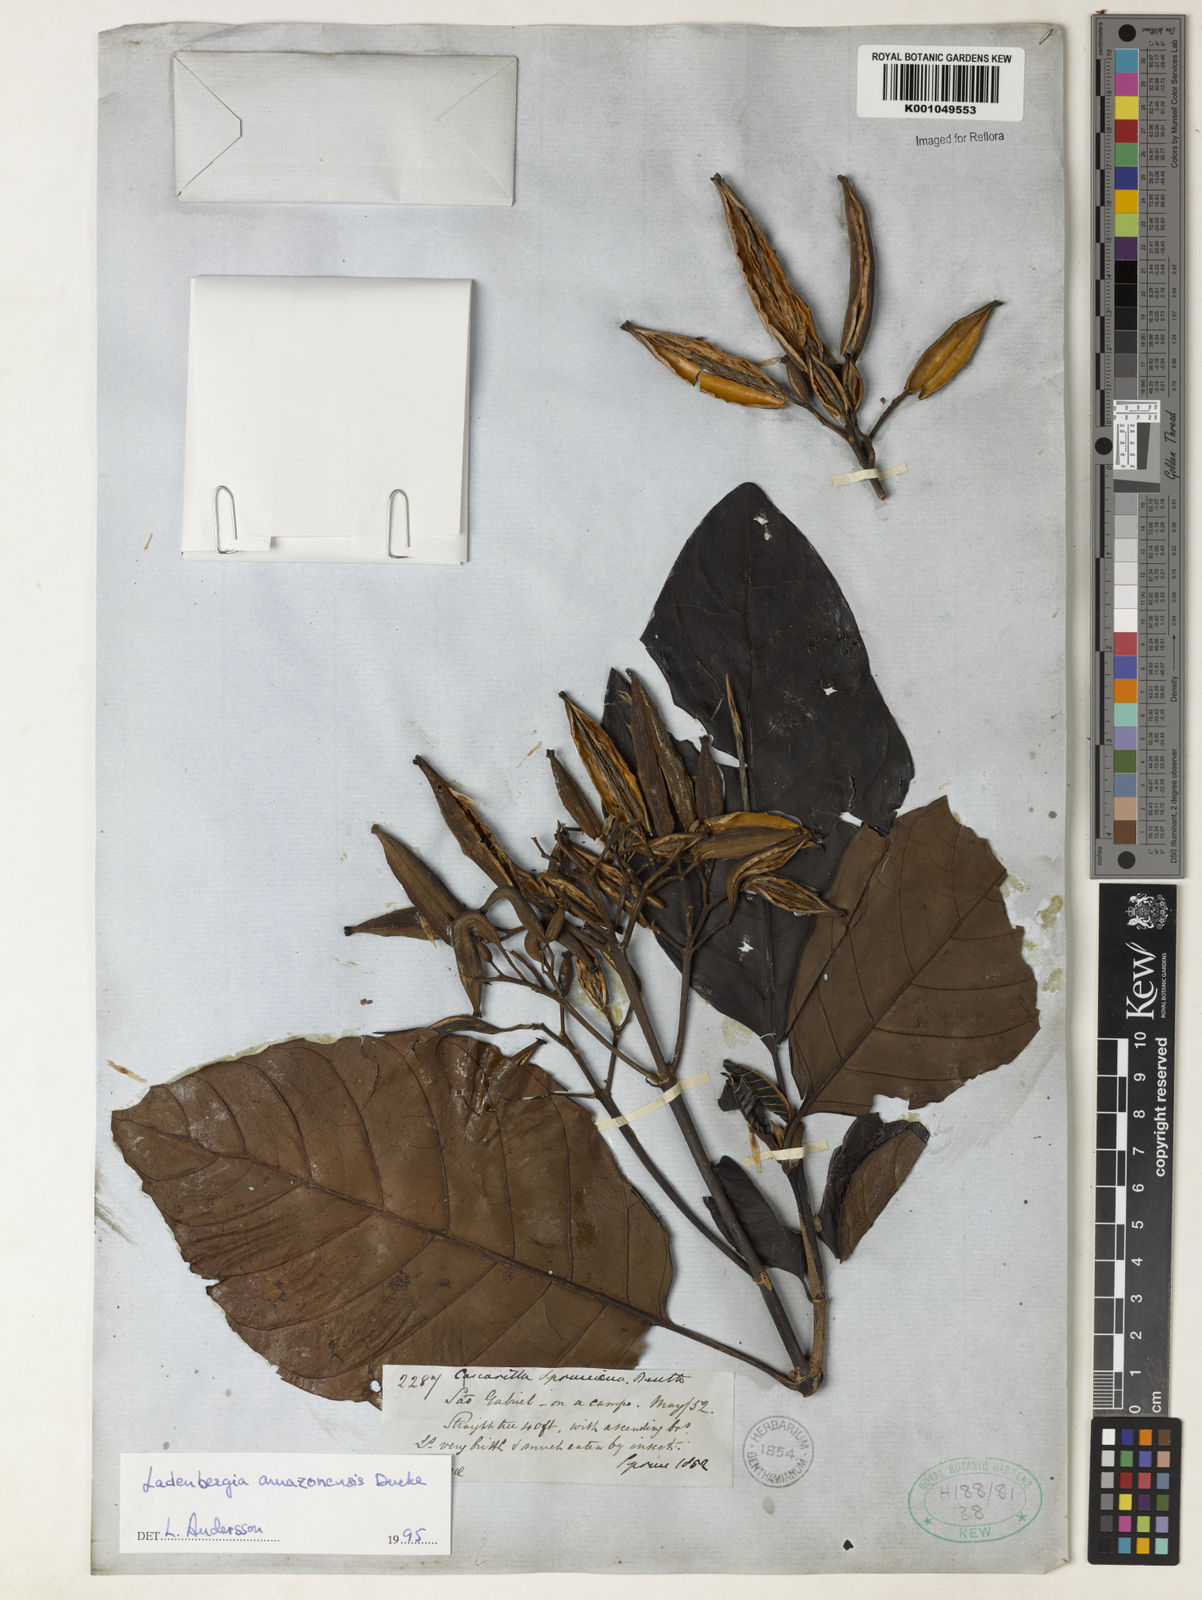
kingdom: Plantae
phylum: Tracheophyta
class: Magnoliopsida
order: Gentianales
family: Rubiaceae
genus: Ladenbergia
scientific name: Ladenbergia amazonensis
